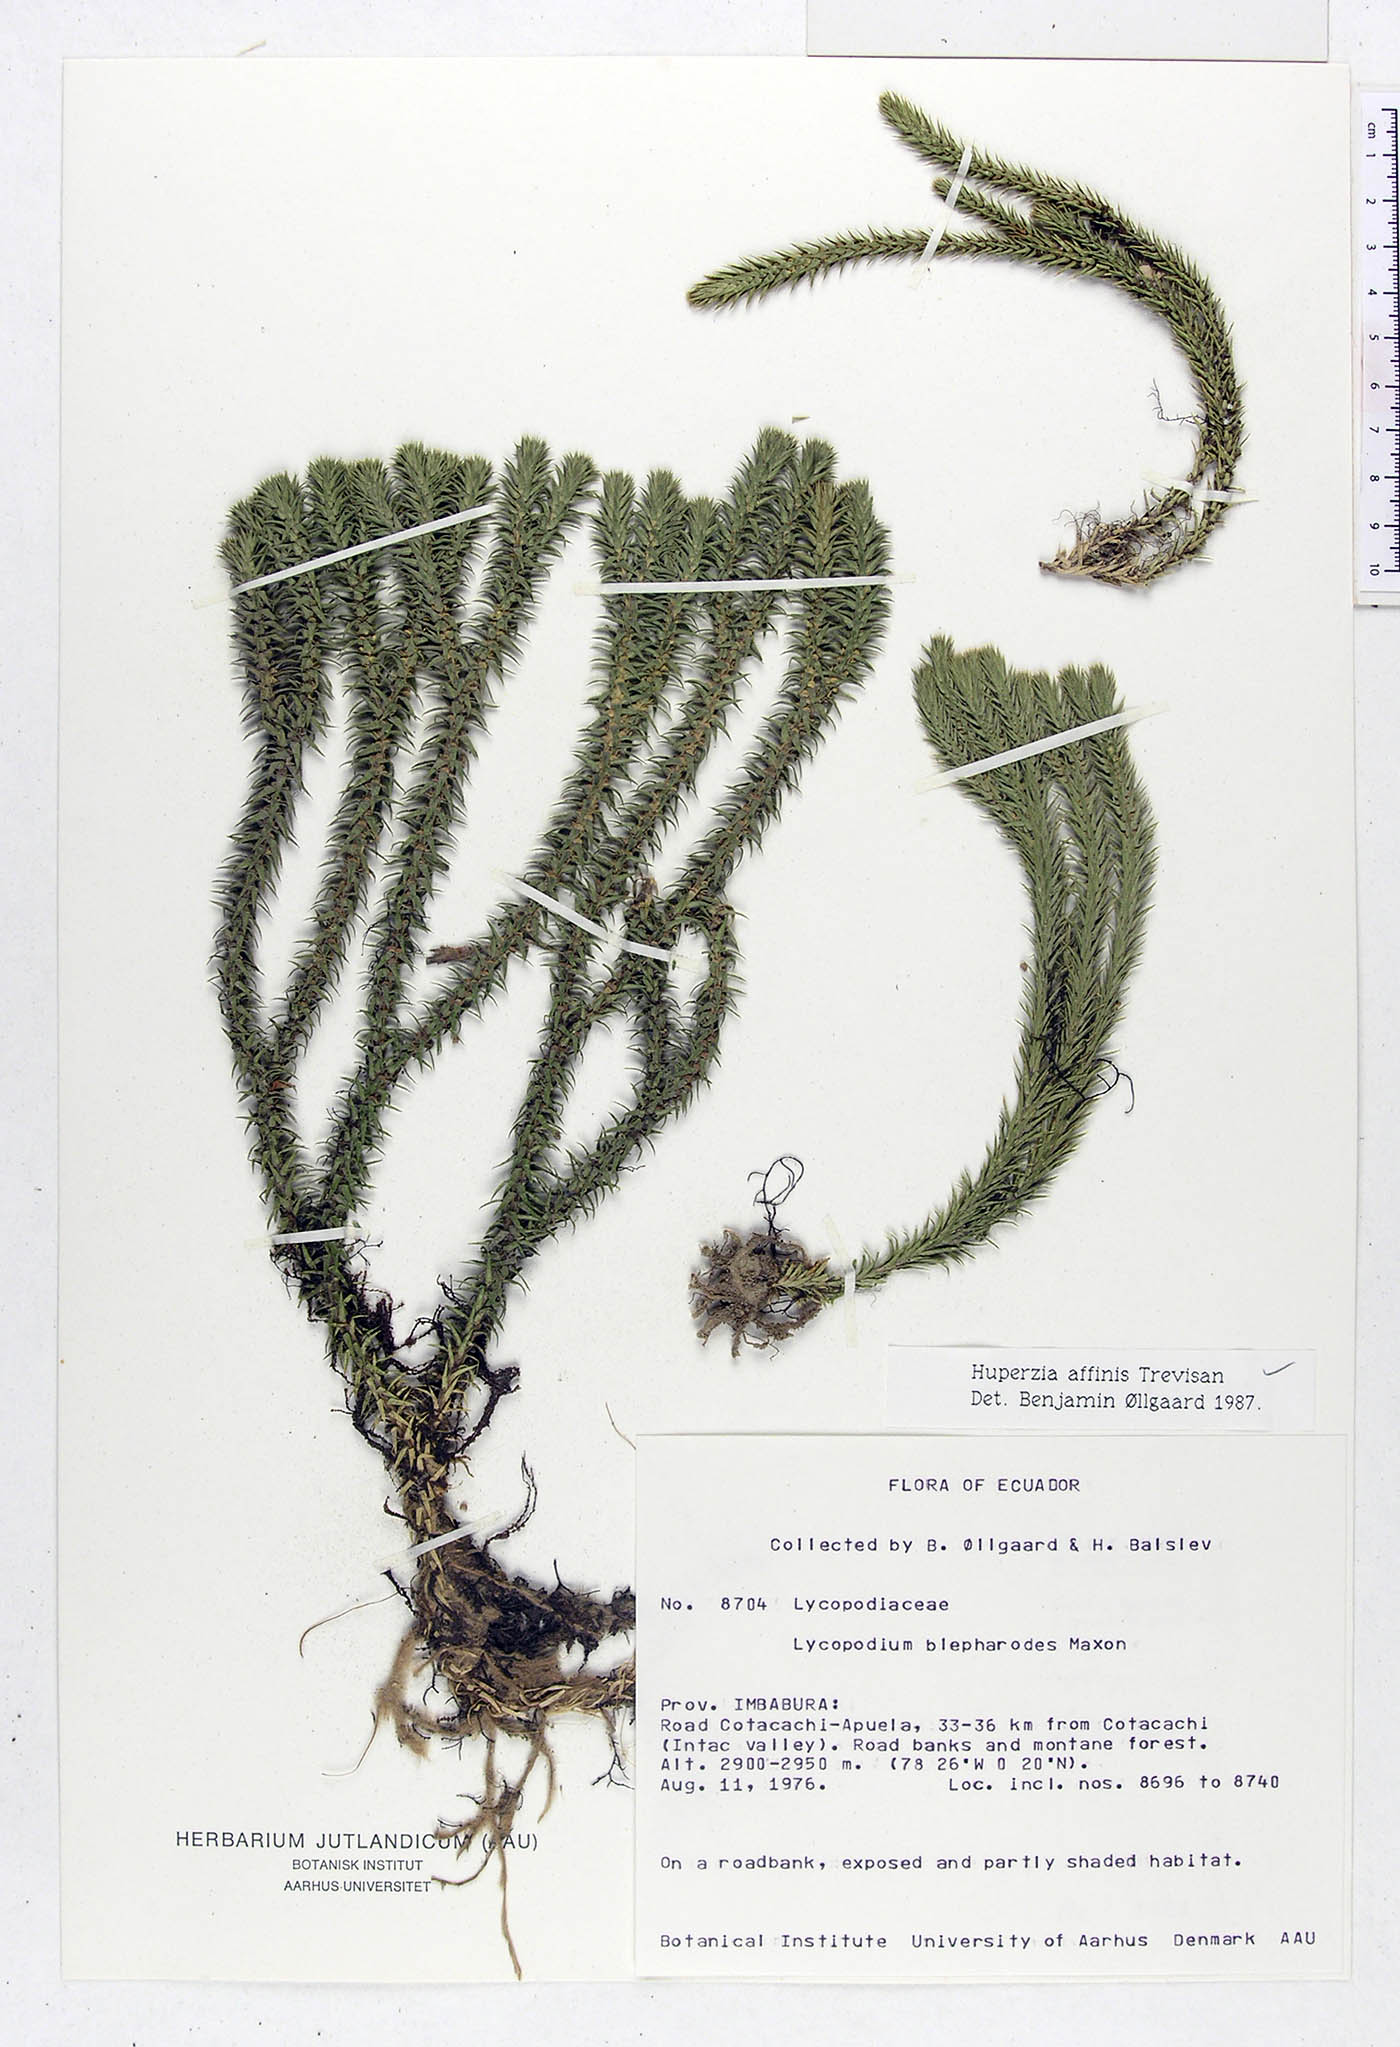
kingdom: Plantae
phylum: Tracheophyta
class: Lycopodiopsida
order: Lycopodiales
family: Lycopodiaceae
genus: Phlegmariurus
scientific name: Phlegmariurus affinis
